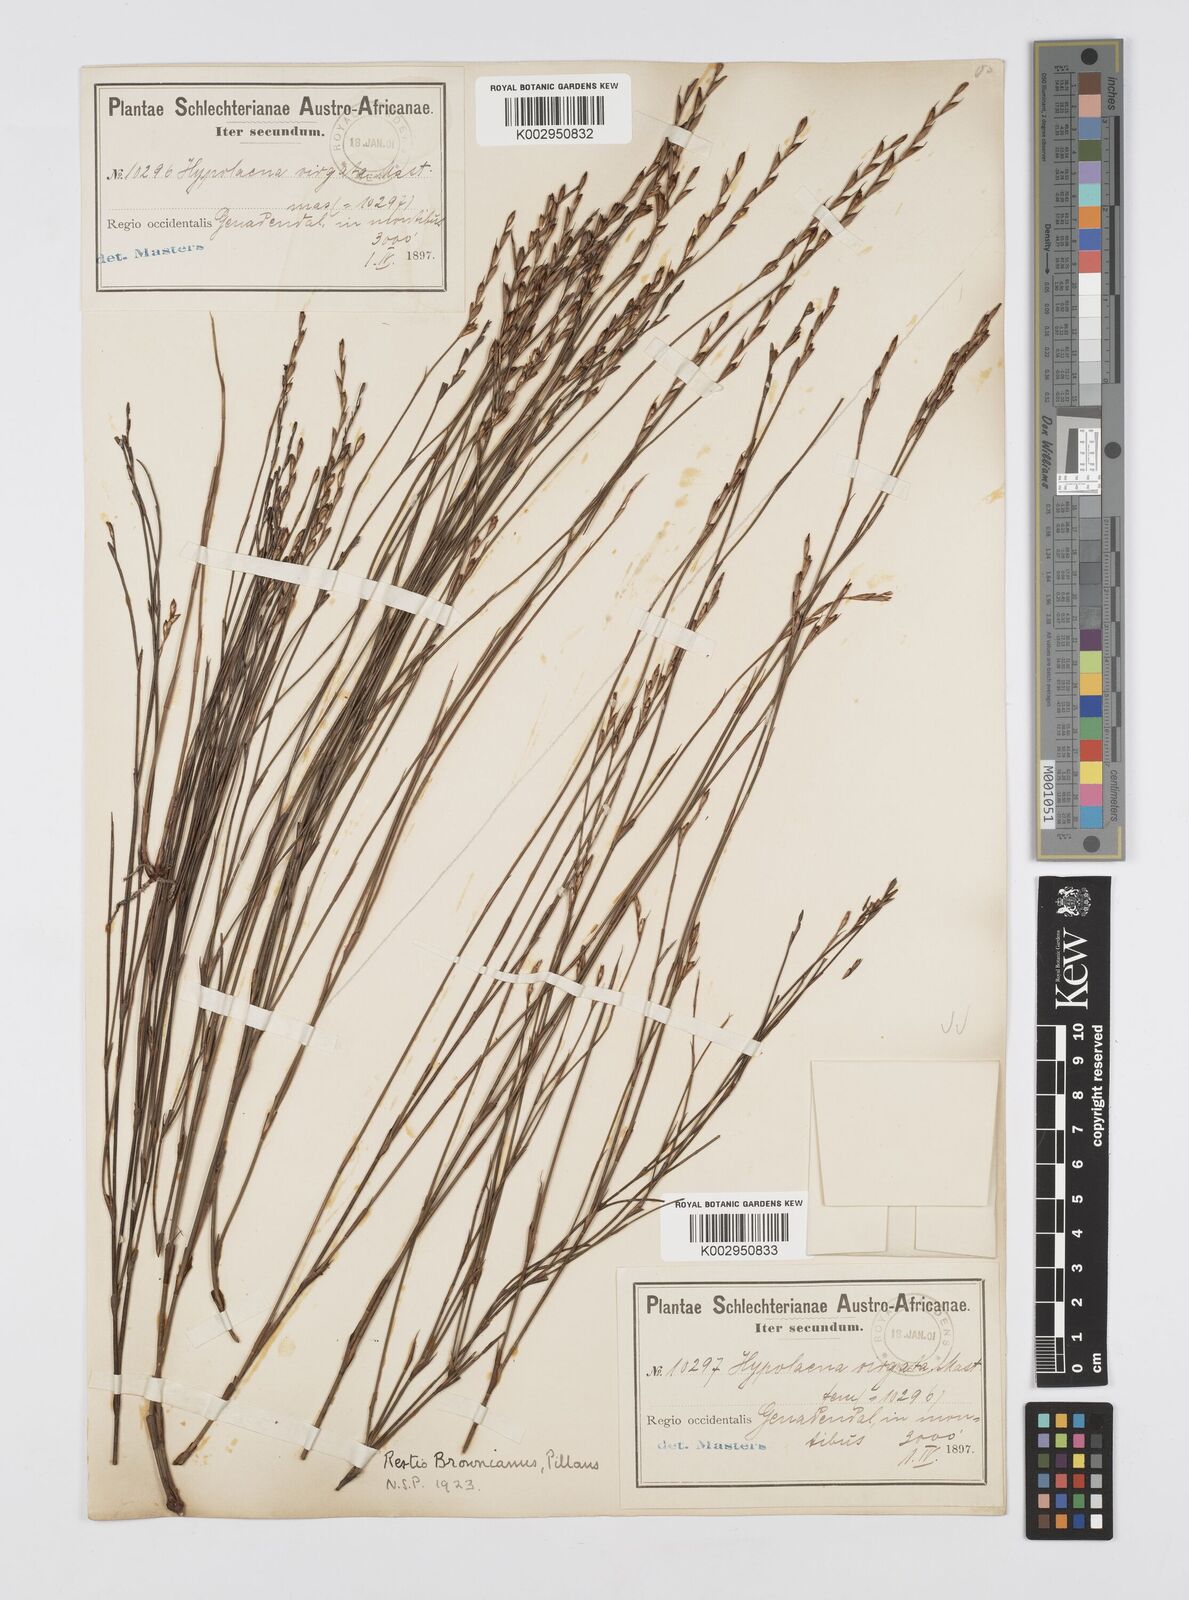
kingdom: Plantae
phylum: Tracheophyta
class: Liliopsida
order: Poales
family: Restionaceae
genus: Restio
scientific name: Restio debilis
